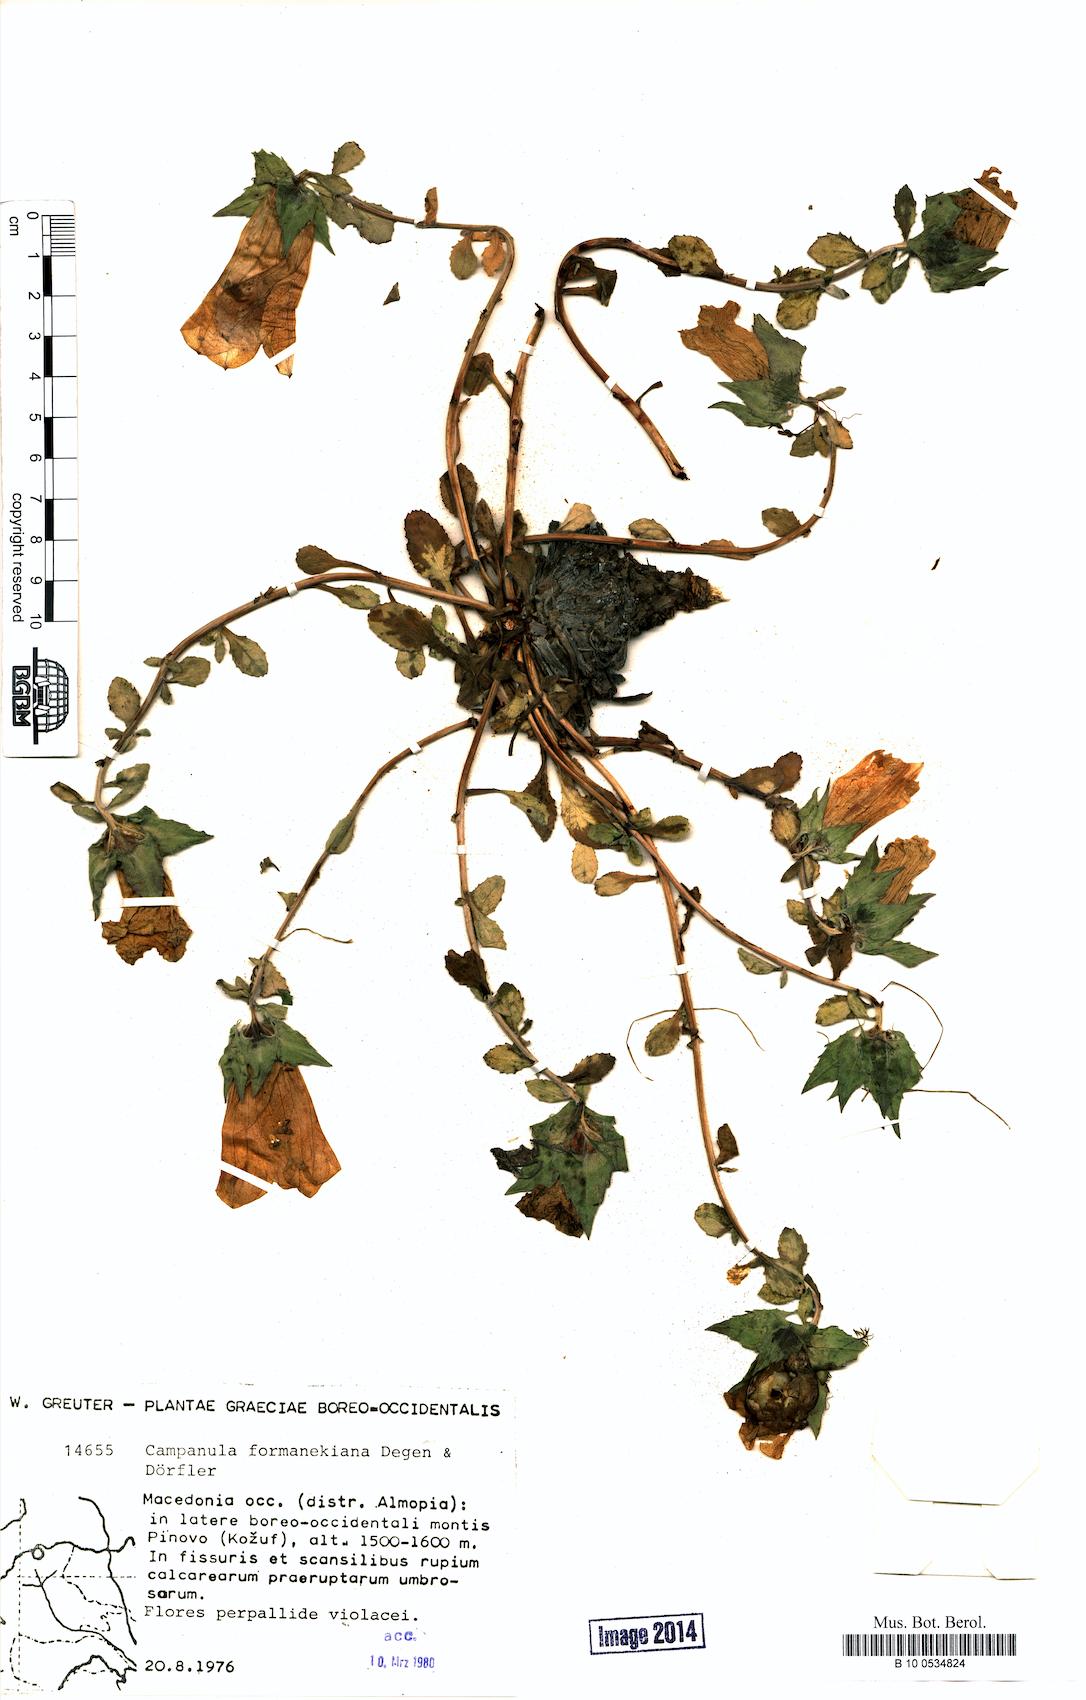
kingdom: Plantae
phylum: Tracheophyta
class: Magnoliopsida
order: Asterales
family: Campanulaceae
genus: Campanula
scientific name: Campanula formanekiana
